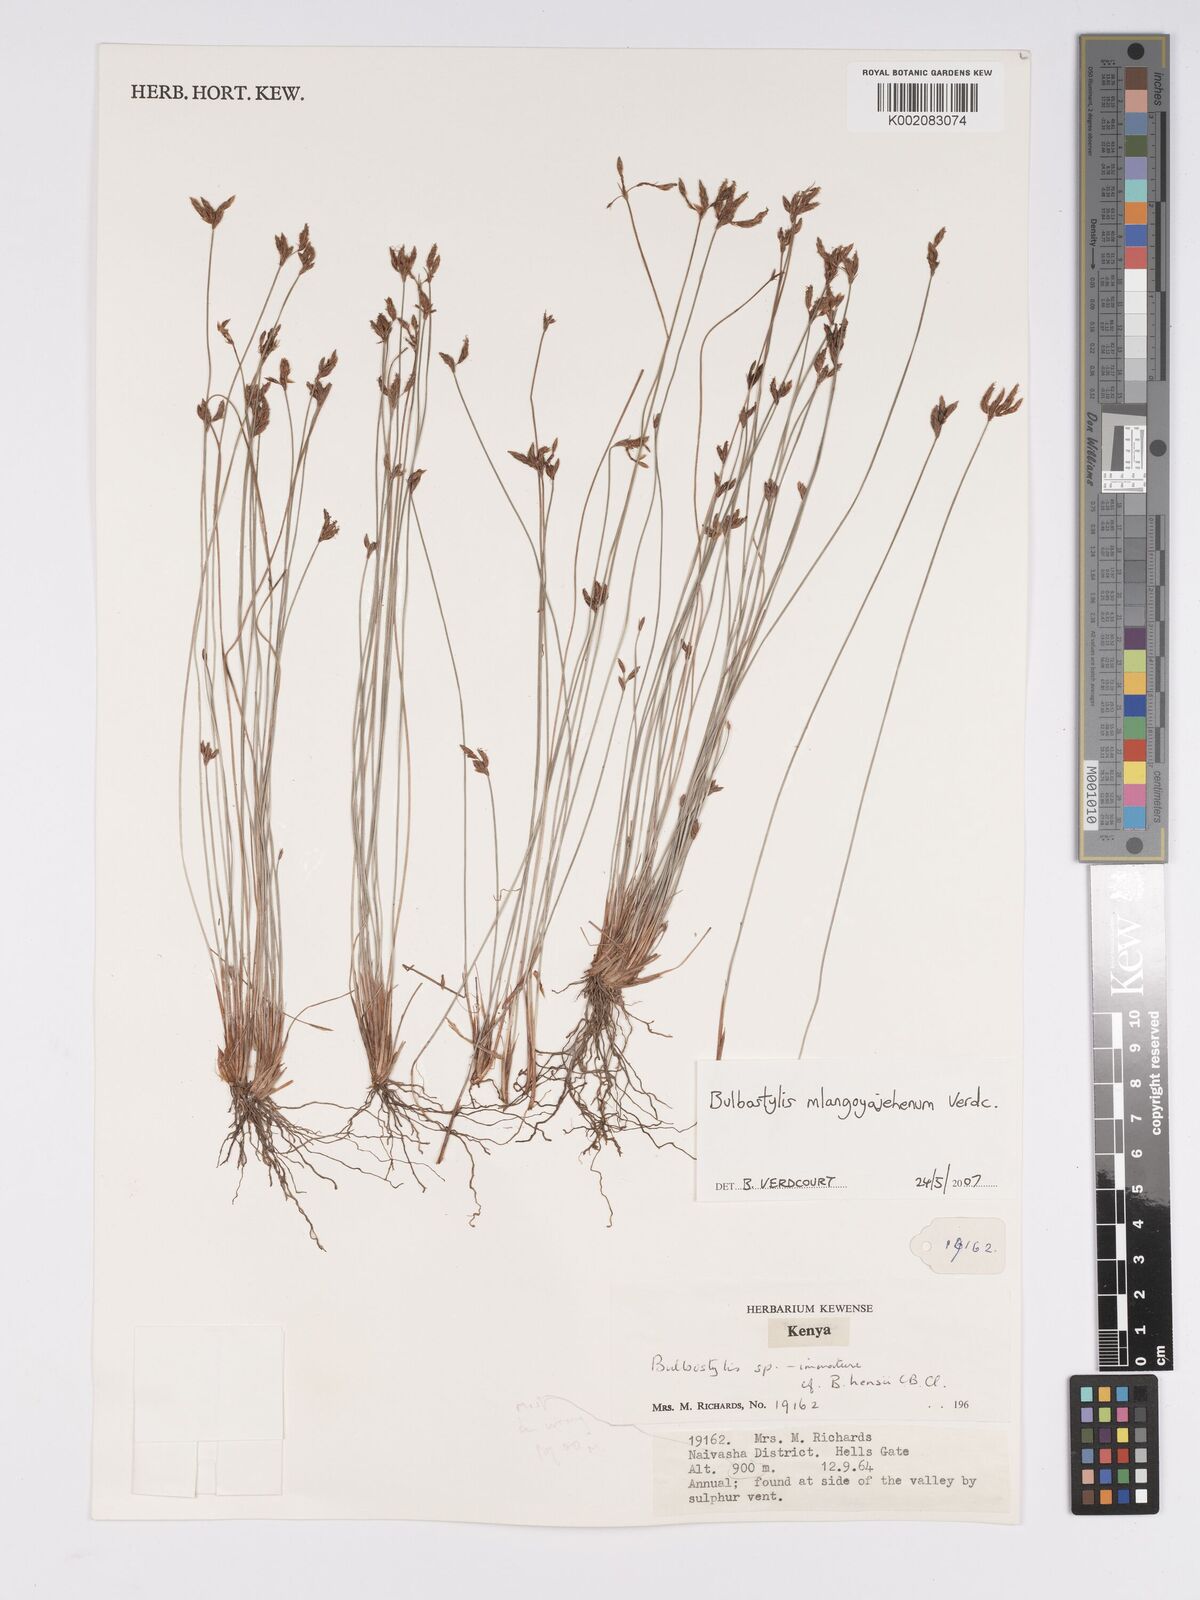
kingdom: Plantae
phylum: Tracheophyta
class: Liliopsida
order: Poales
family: Cyperaceae
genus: Bulbostylis
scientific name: Bulbostylis mlangoyajehenum
